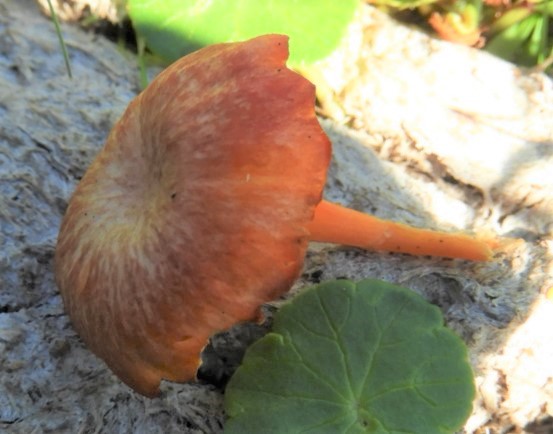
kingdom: Fungi
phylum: Basidiomycota
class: Agaricomycetes
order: Agaricales
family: Hygrophoraceae
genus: Hygrocybe
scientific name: Hygrocybe
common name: vokshat
